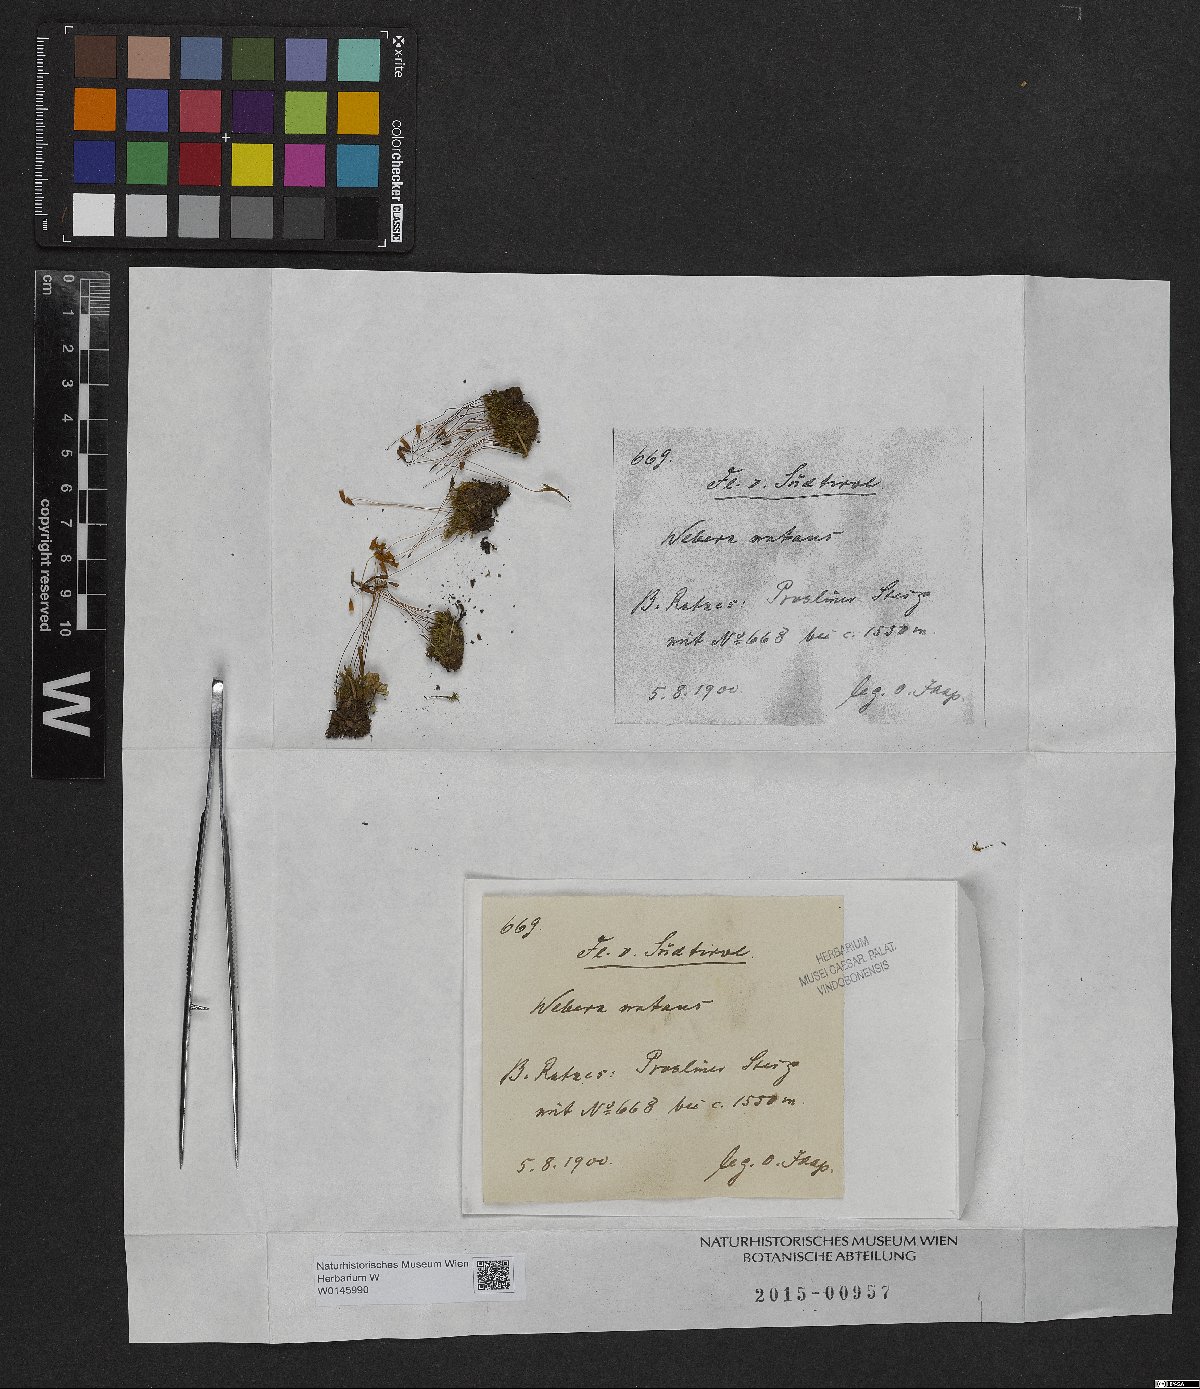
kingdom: Plantae
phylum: Bryophyta
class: Bryopsida
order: Bryales
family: Mniaceae
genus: Pohlia
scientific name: Pohlia nutans
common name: Nodding thread-moss
